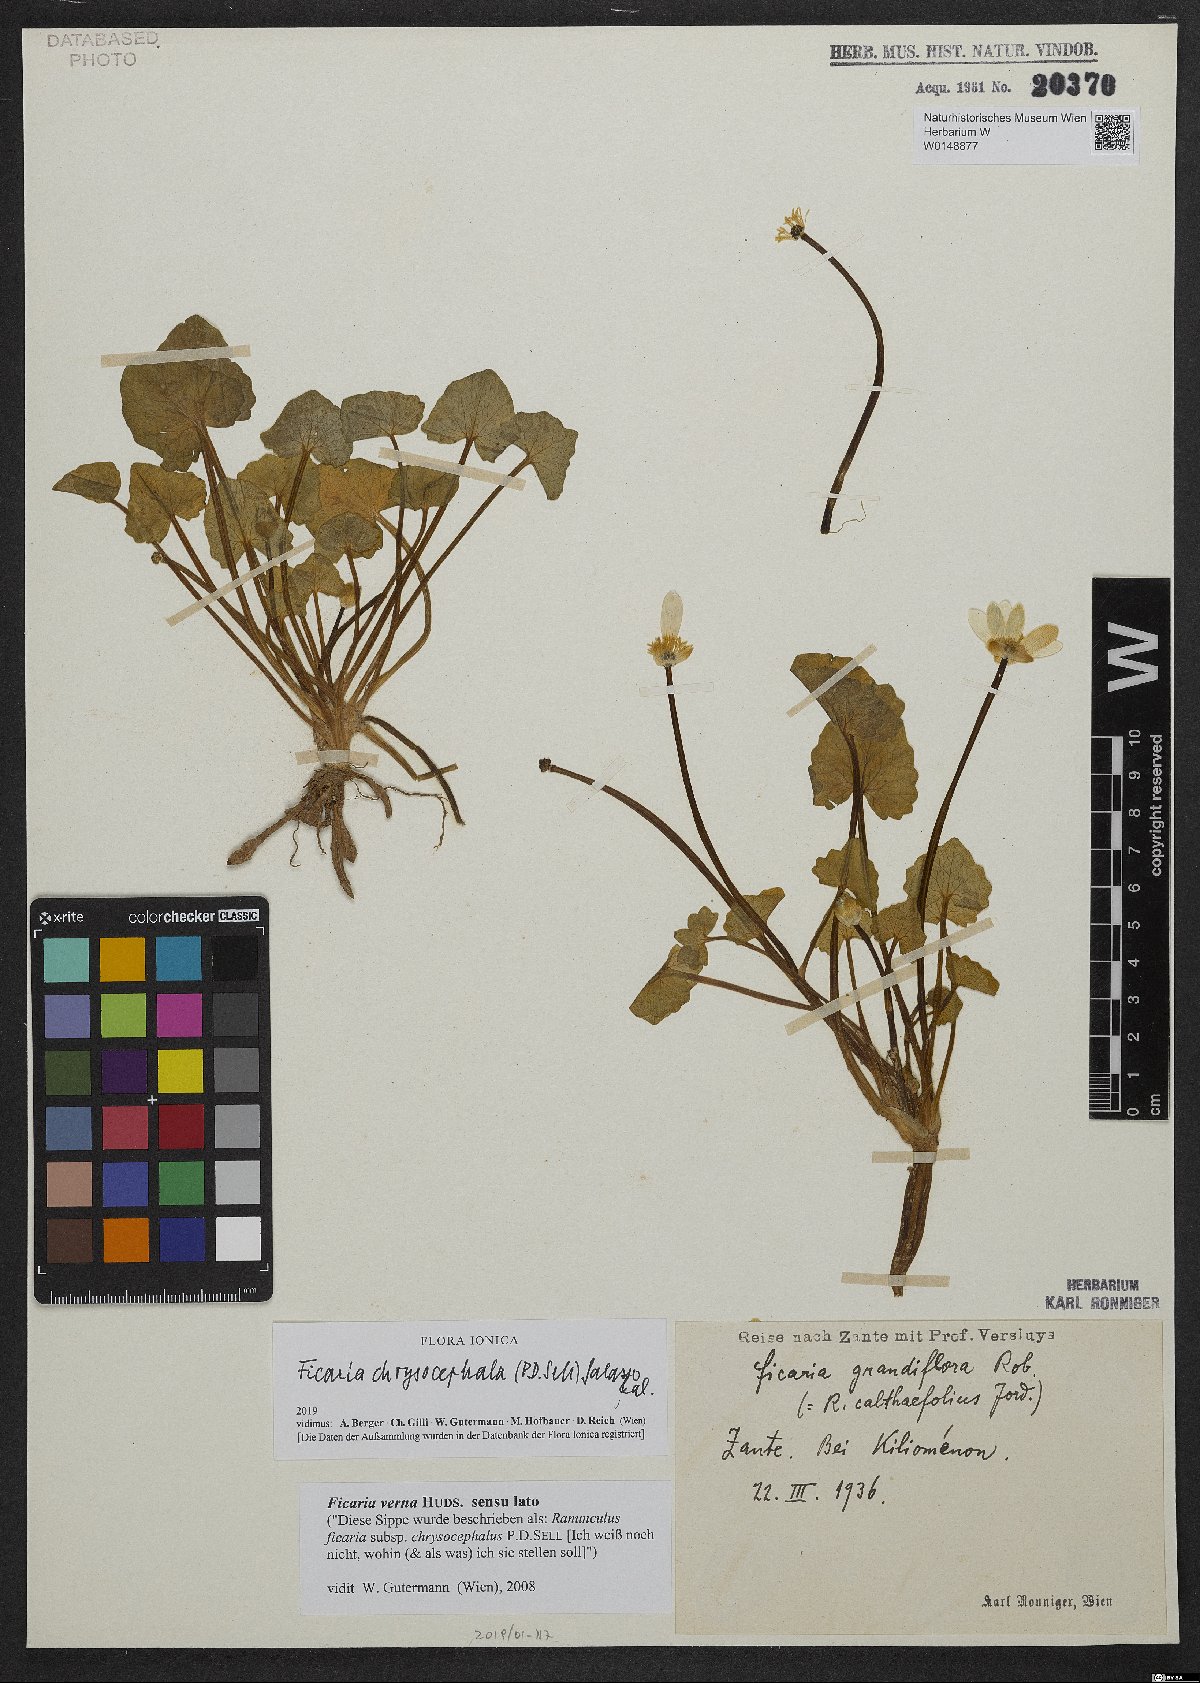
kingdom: Plantae
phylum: Tracheophyta
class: Magnoliopsida
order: Ranunculales
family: Ranunculaceae
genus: Ficaria
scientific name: Ficaria chrysocephala
